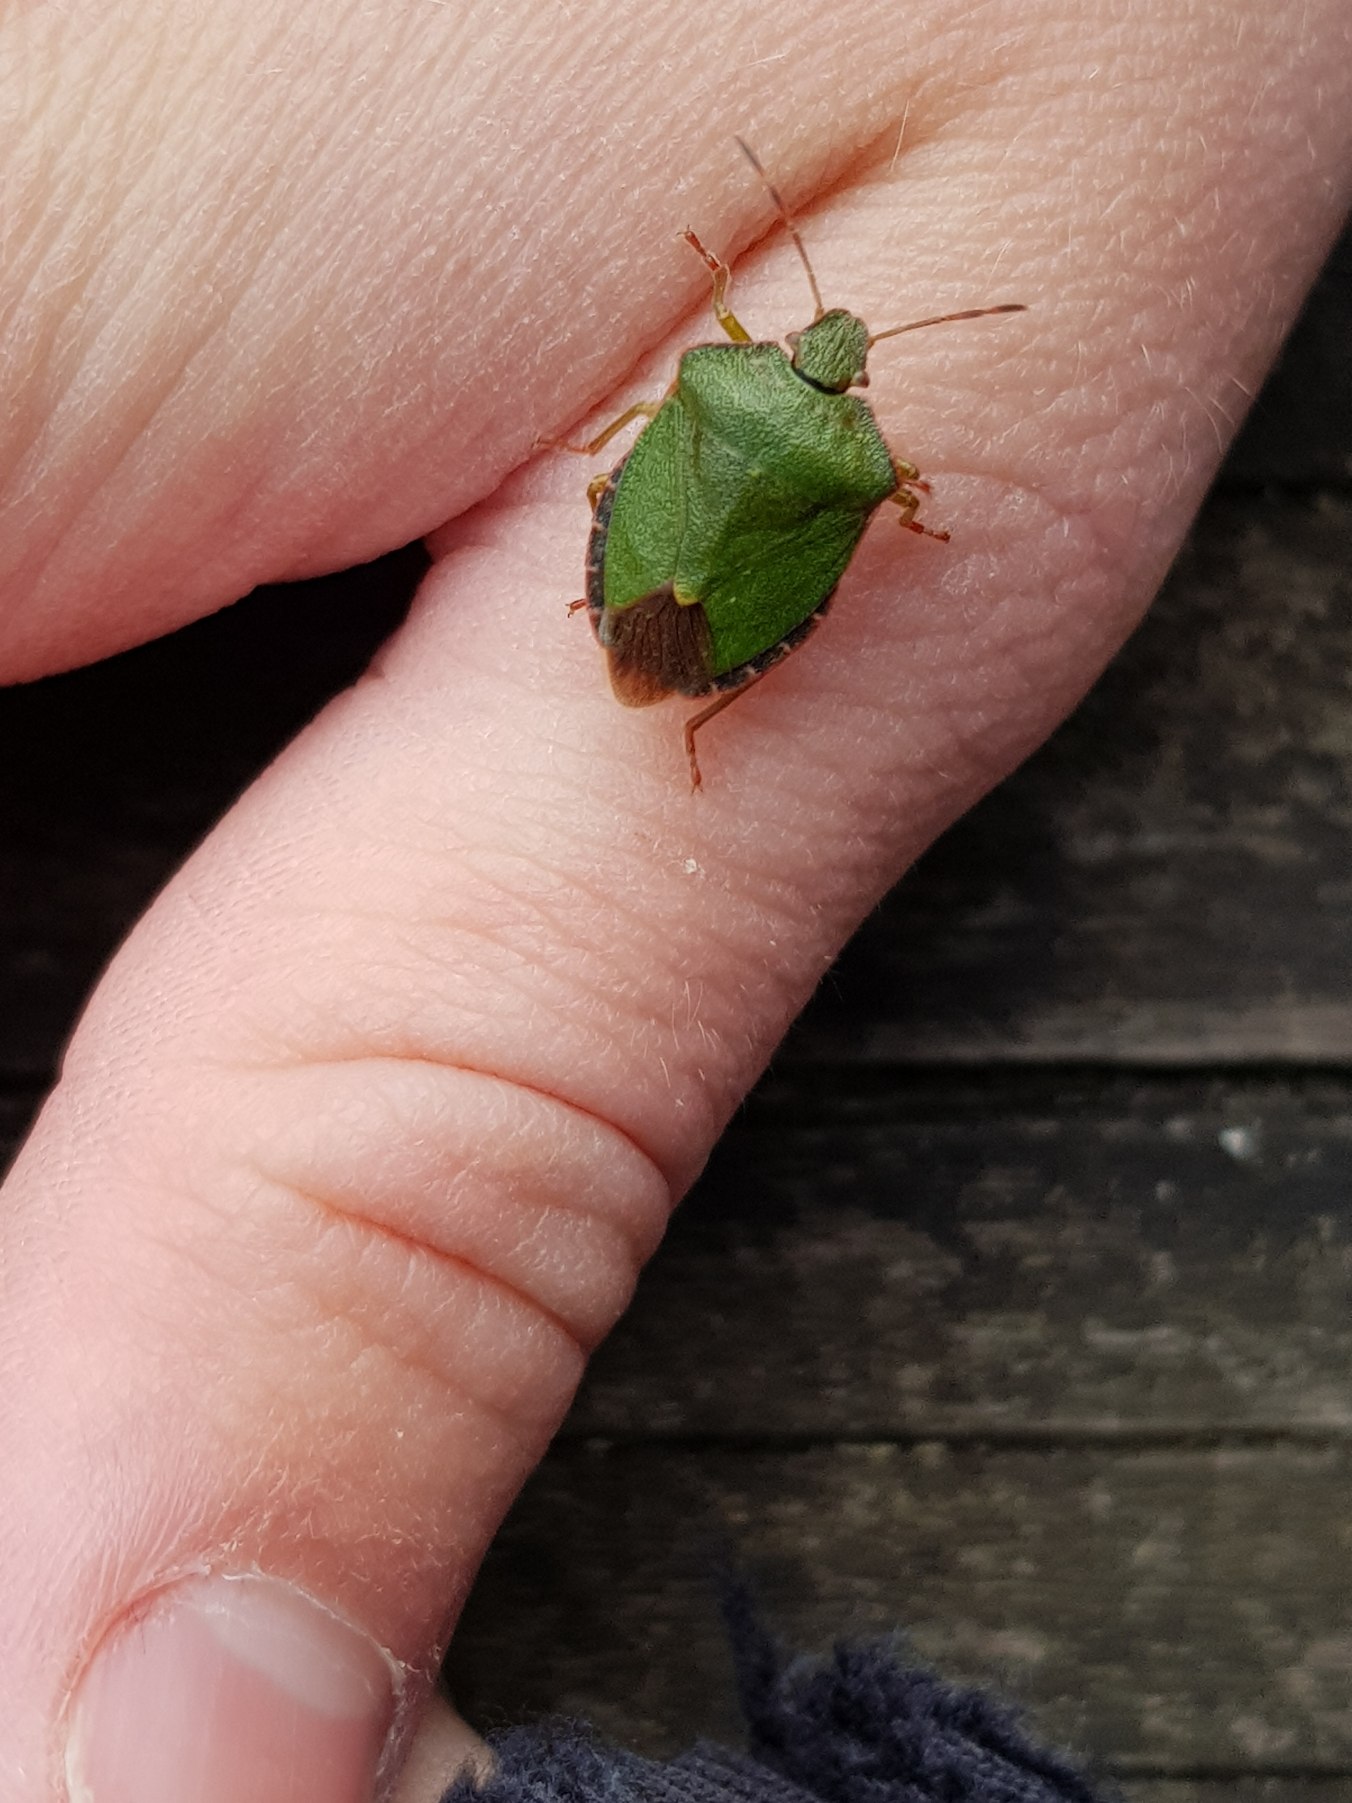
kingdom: Animalia
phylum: Arthropoda
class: Insecta
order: Hemiptera
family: Pentatomidae
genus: Palomena
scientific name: Palomena prasina
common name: Grøn bredtæge
